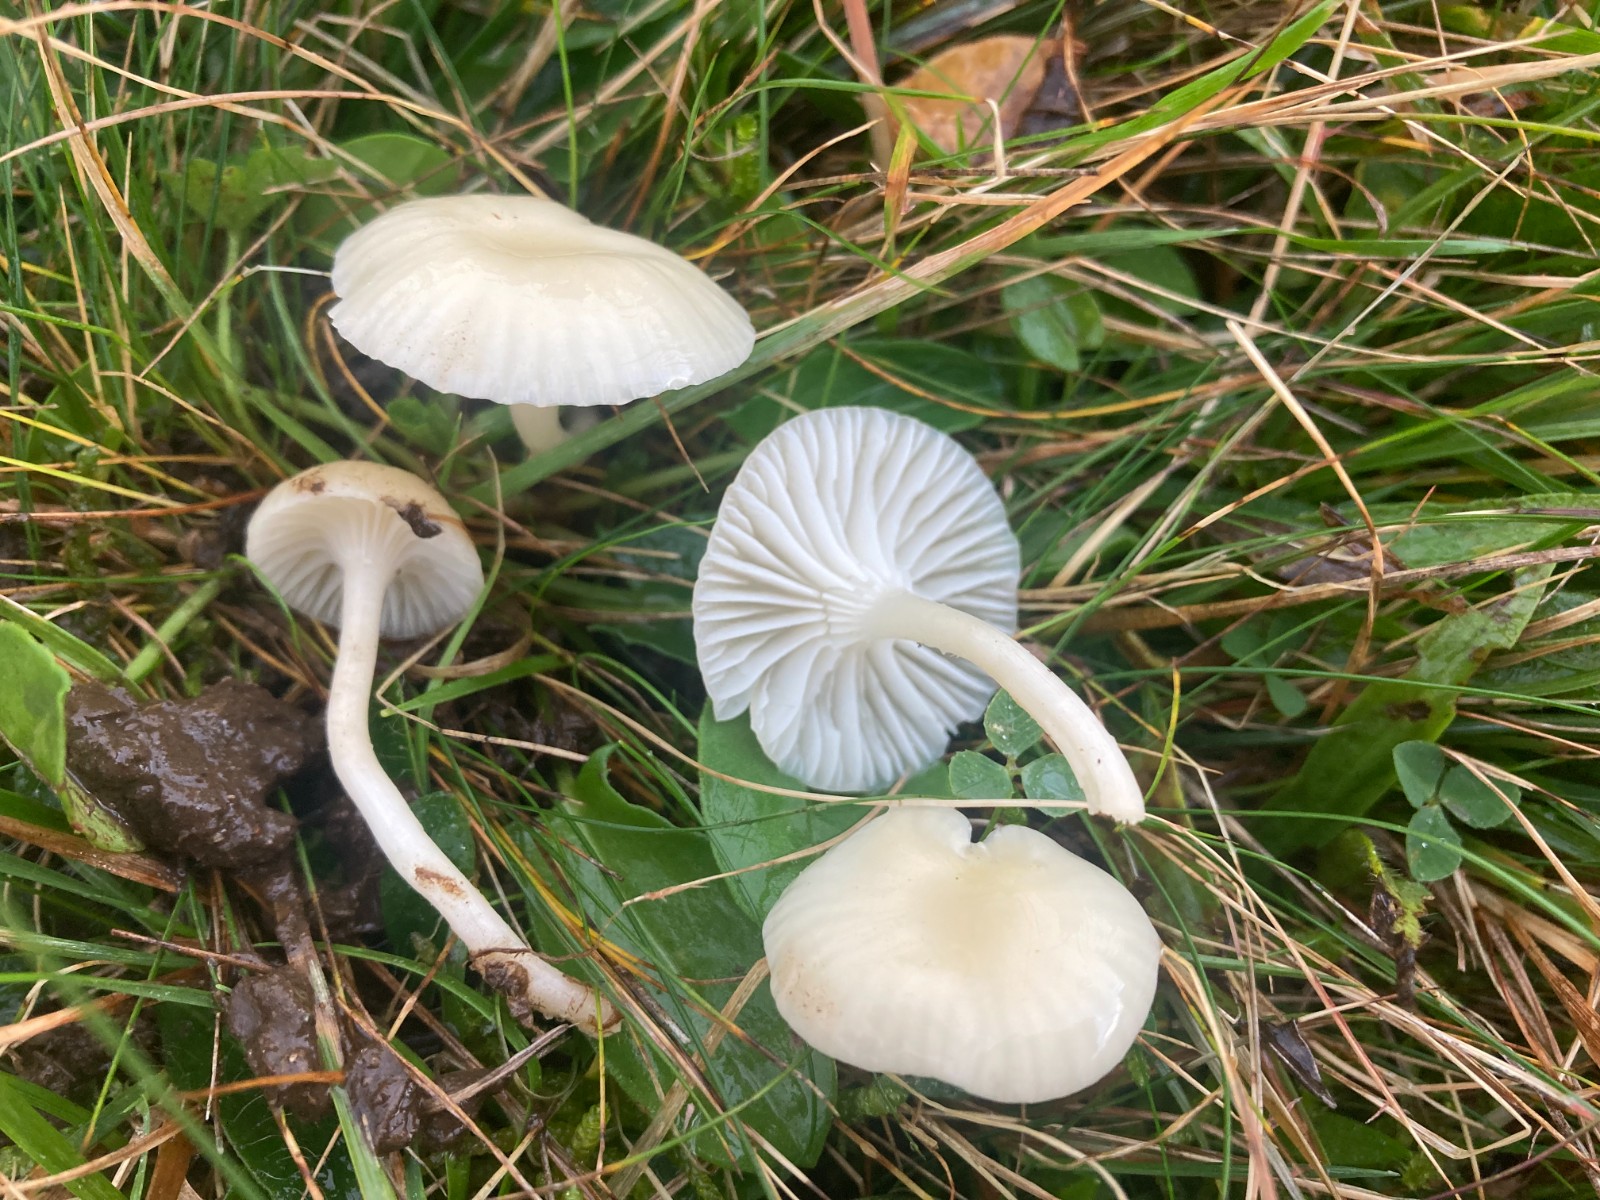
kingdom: Fungi
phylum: Basidiomycota
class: Agaricomycetes
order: Agaricales
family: Hygrophoraceae
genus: Cuphophyllus
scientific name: Cuphophyllus russocoriaceus
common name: ruslæder-vokshat
